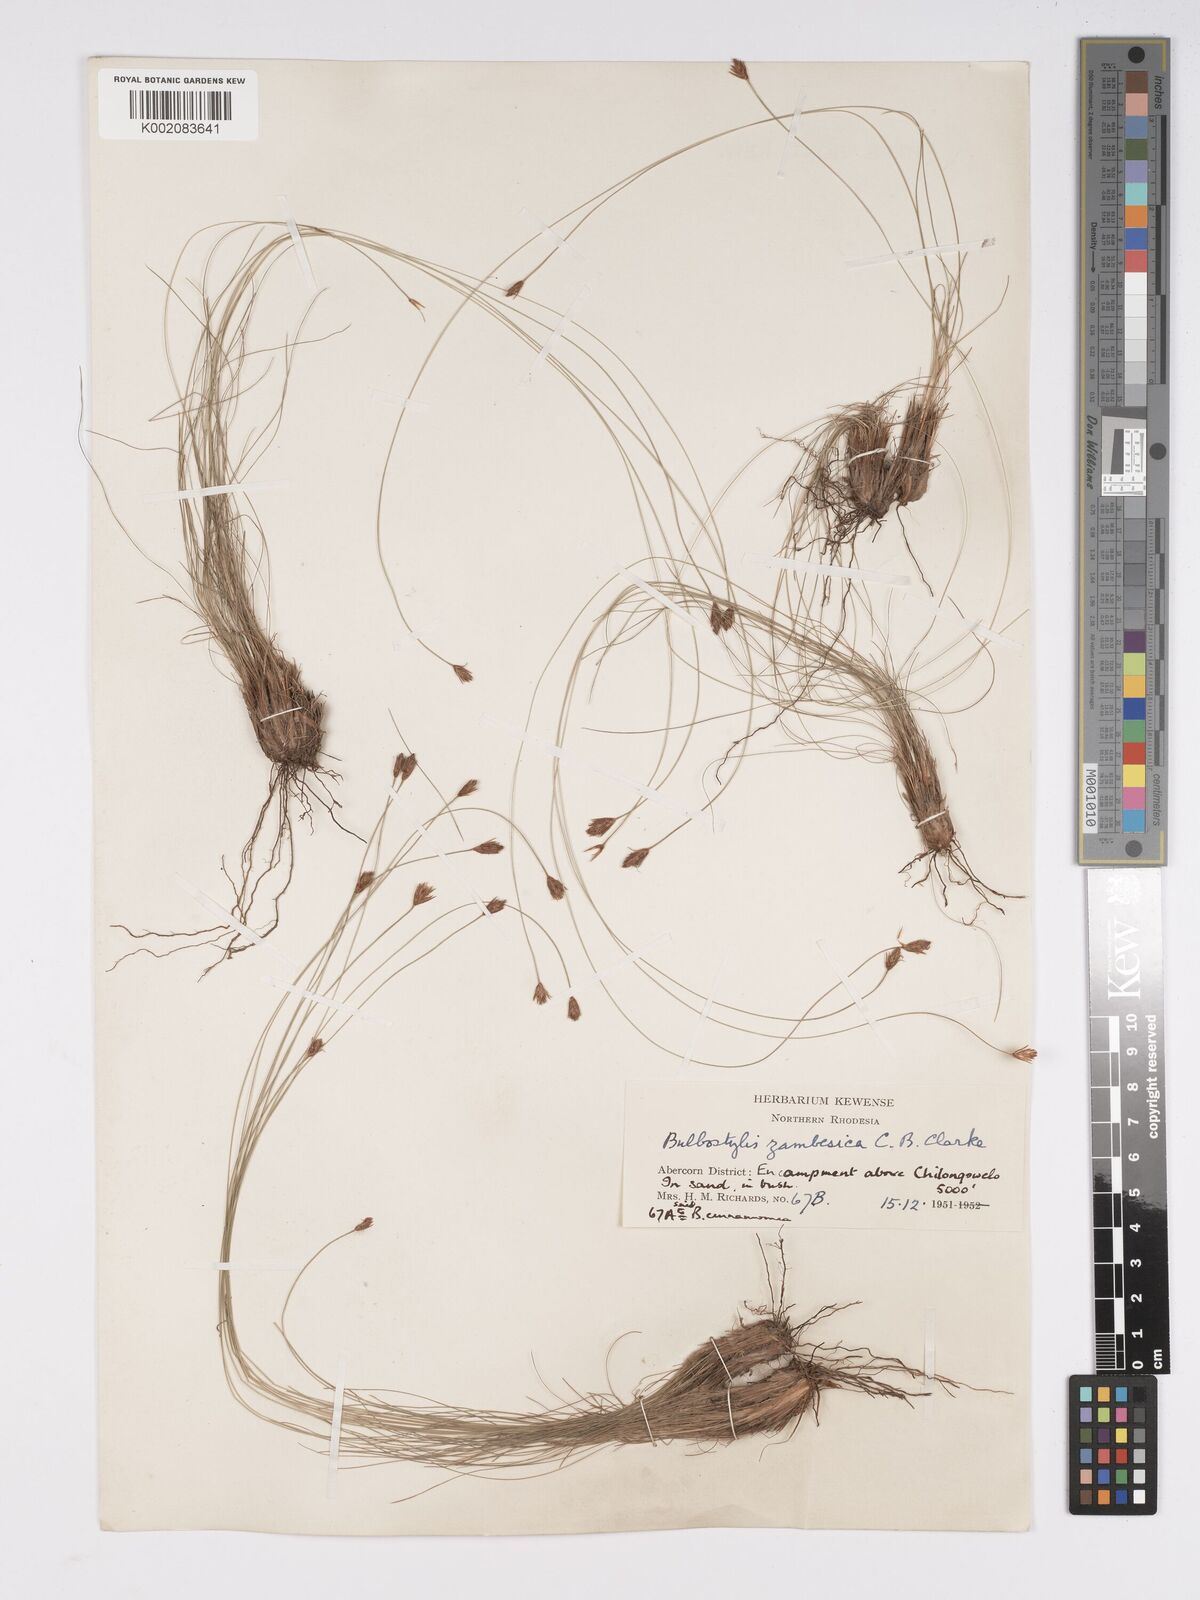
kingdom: Plantae
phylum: Tracheophyta
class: Liliopsida
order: Poales
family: Cyperaceae
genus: Bulbostylis
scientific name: Bulbostylis macra
